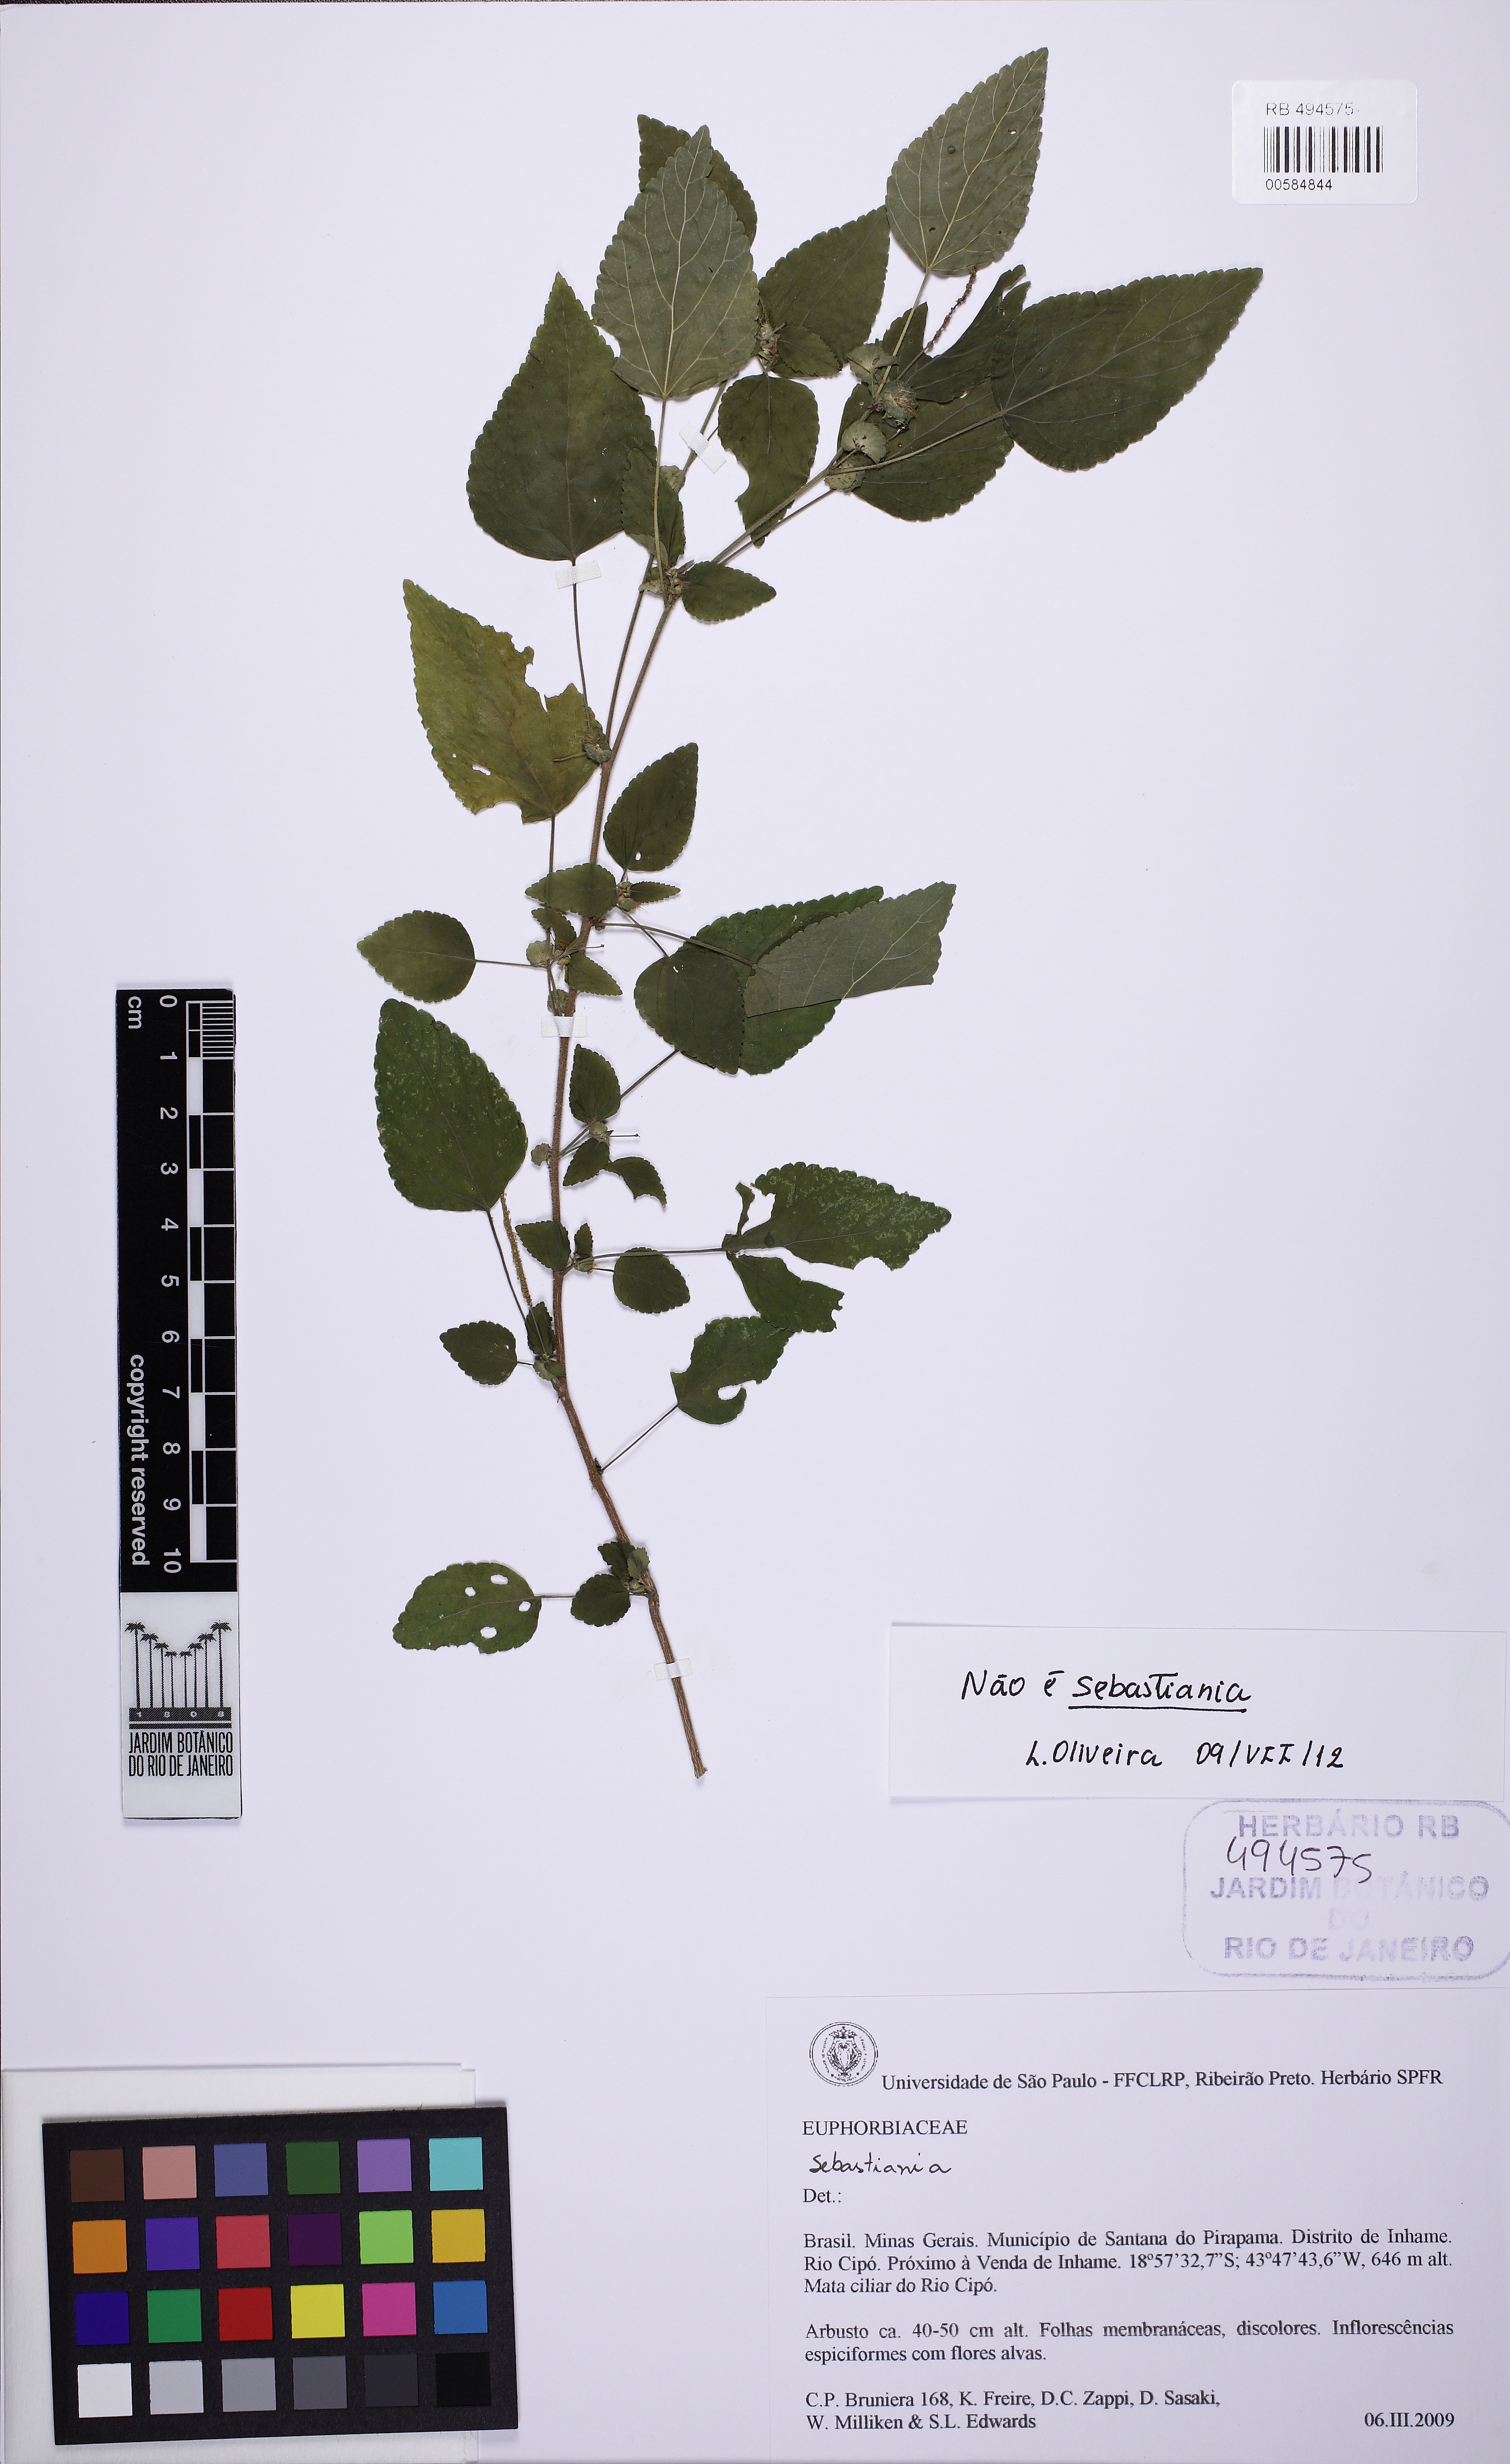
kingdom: Plantae
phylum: Tracheophyta
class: Magnoliopsida
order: Malpighiales
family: Euphorbiaceae
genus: Acalypha
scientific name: Acalypha multicaulis
